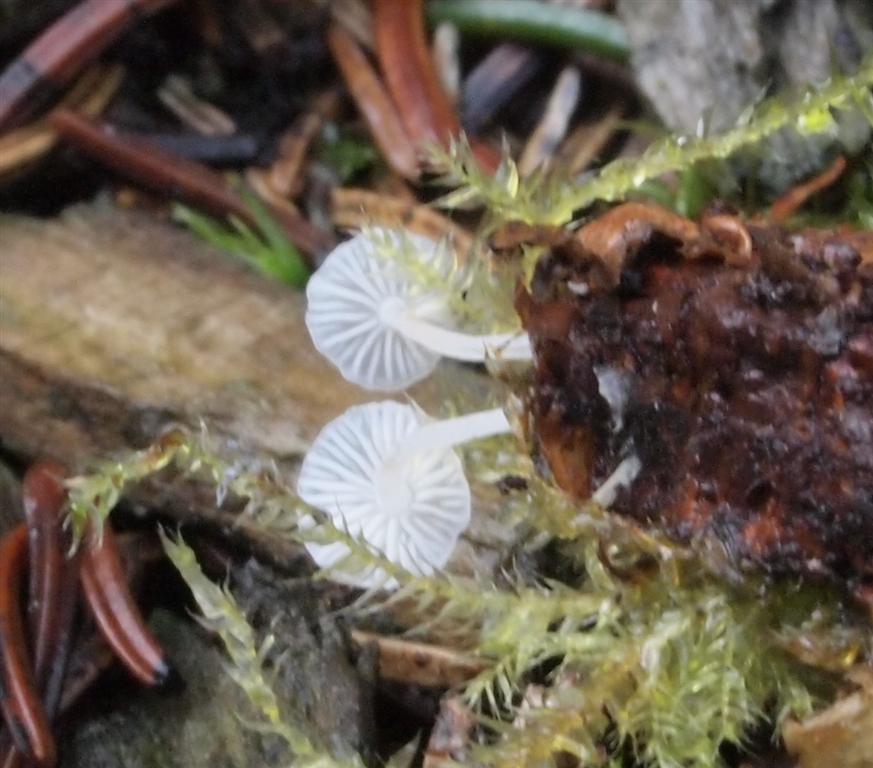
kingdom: Fungi
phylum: Basidiomycota
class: Agaricomycetes
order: Agaricales
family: Mycenaceae
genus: Hemimycena
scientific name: Hemimycena lactea
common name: mælkehvid huesvamp
